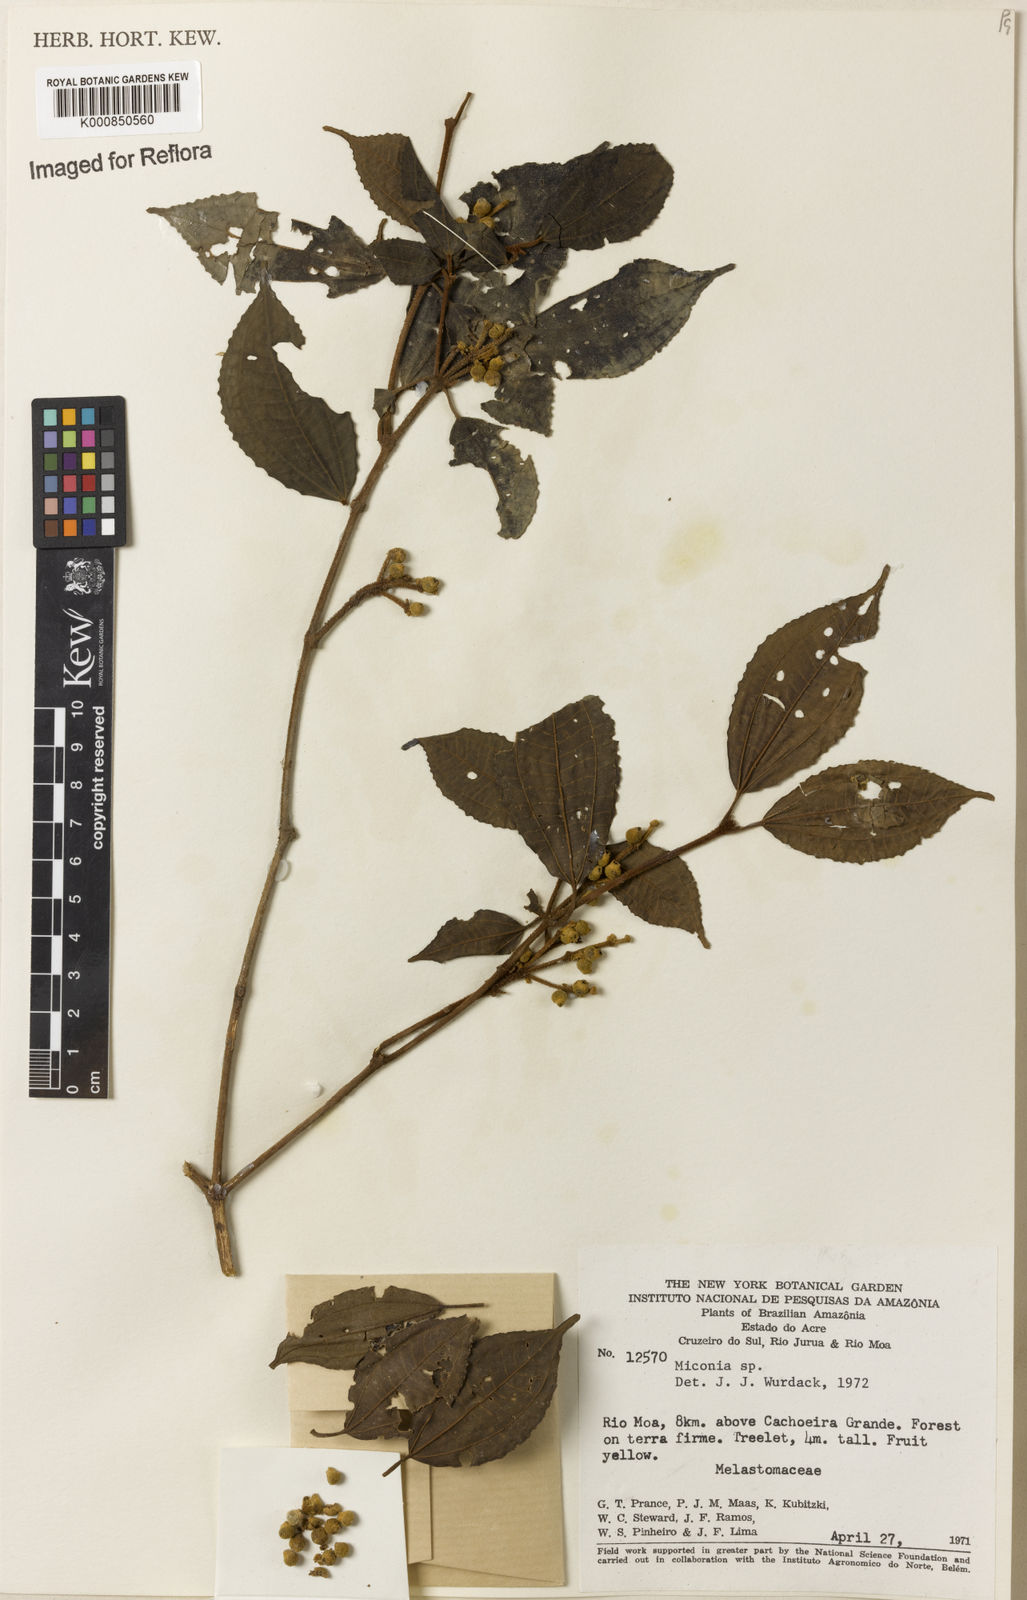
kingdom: Plantae
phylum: Tracheophyta
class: Magnoliopsida
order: Myrtales
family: Melastomataceae
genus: Miconia
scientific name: Miconia
